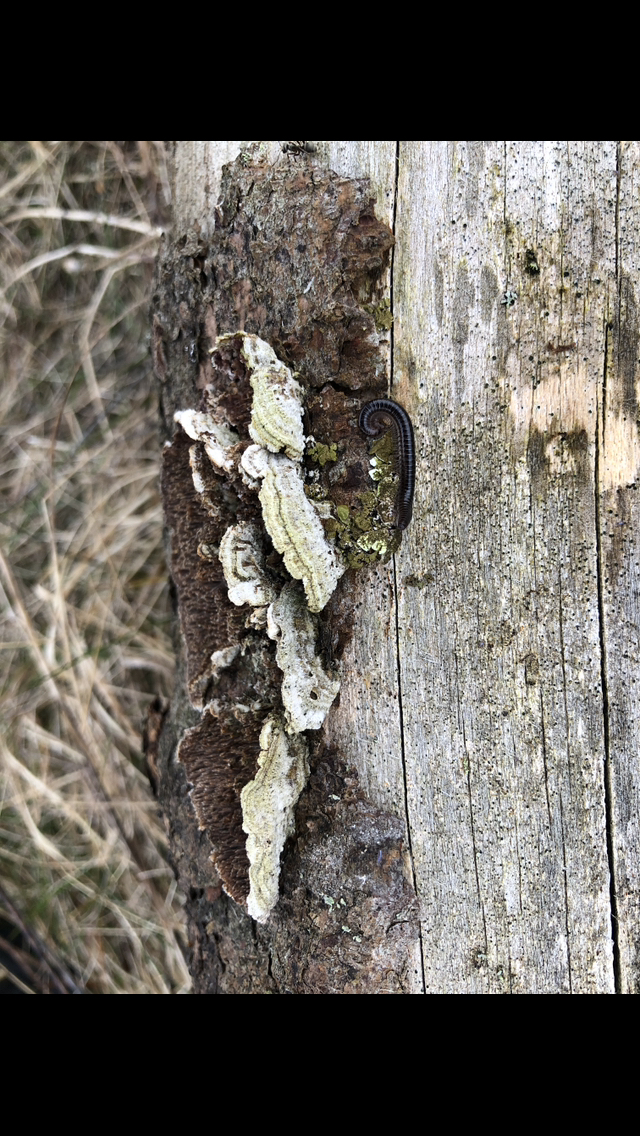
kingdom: Fungi
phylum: Basidiomycota
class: Agaricomycetes
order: Hymenochaetales
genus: Trichaptum
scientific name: Trichaptum fuscoviolaceum
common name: tandet violporesvamp
